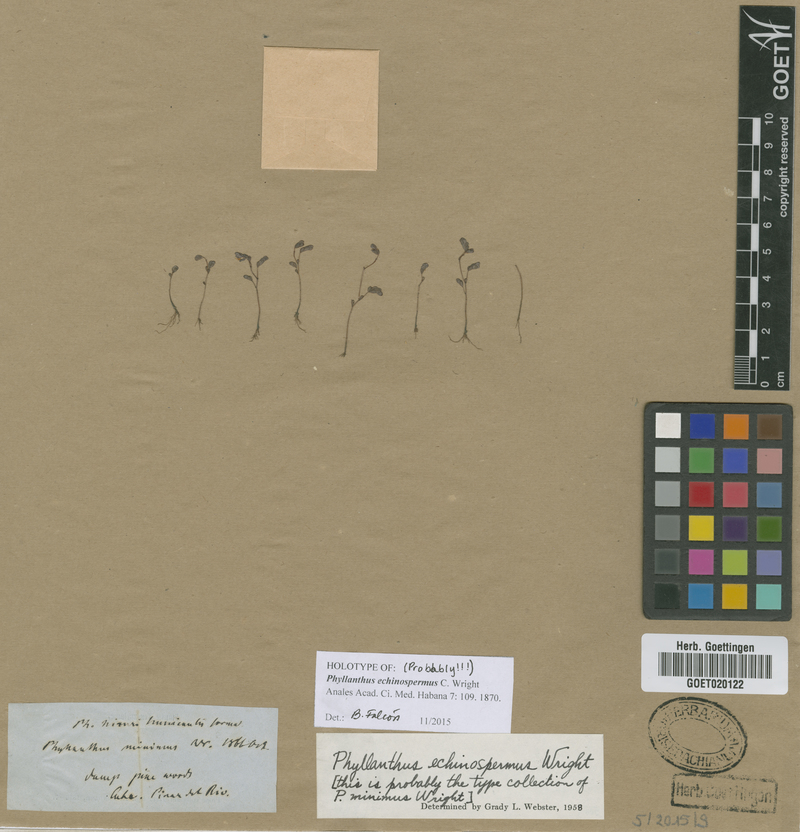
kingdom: Plantae
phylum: Tracheophyta
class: Magnoliopsida
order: Malpighiales
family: Phyllanthaceae
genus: Phyllanthus
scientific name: Phyllanthus echinospermus
